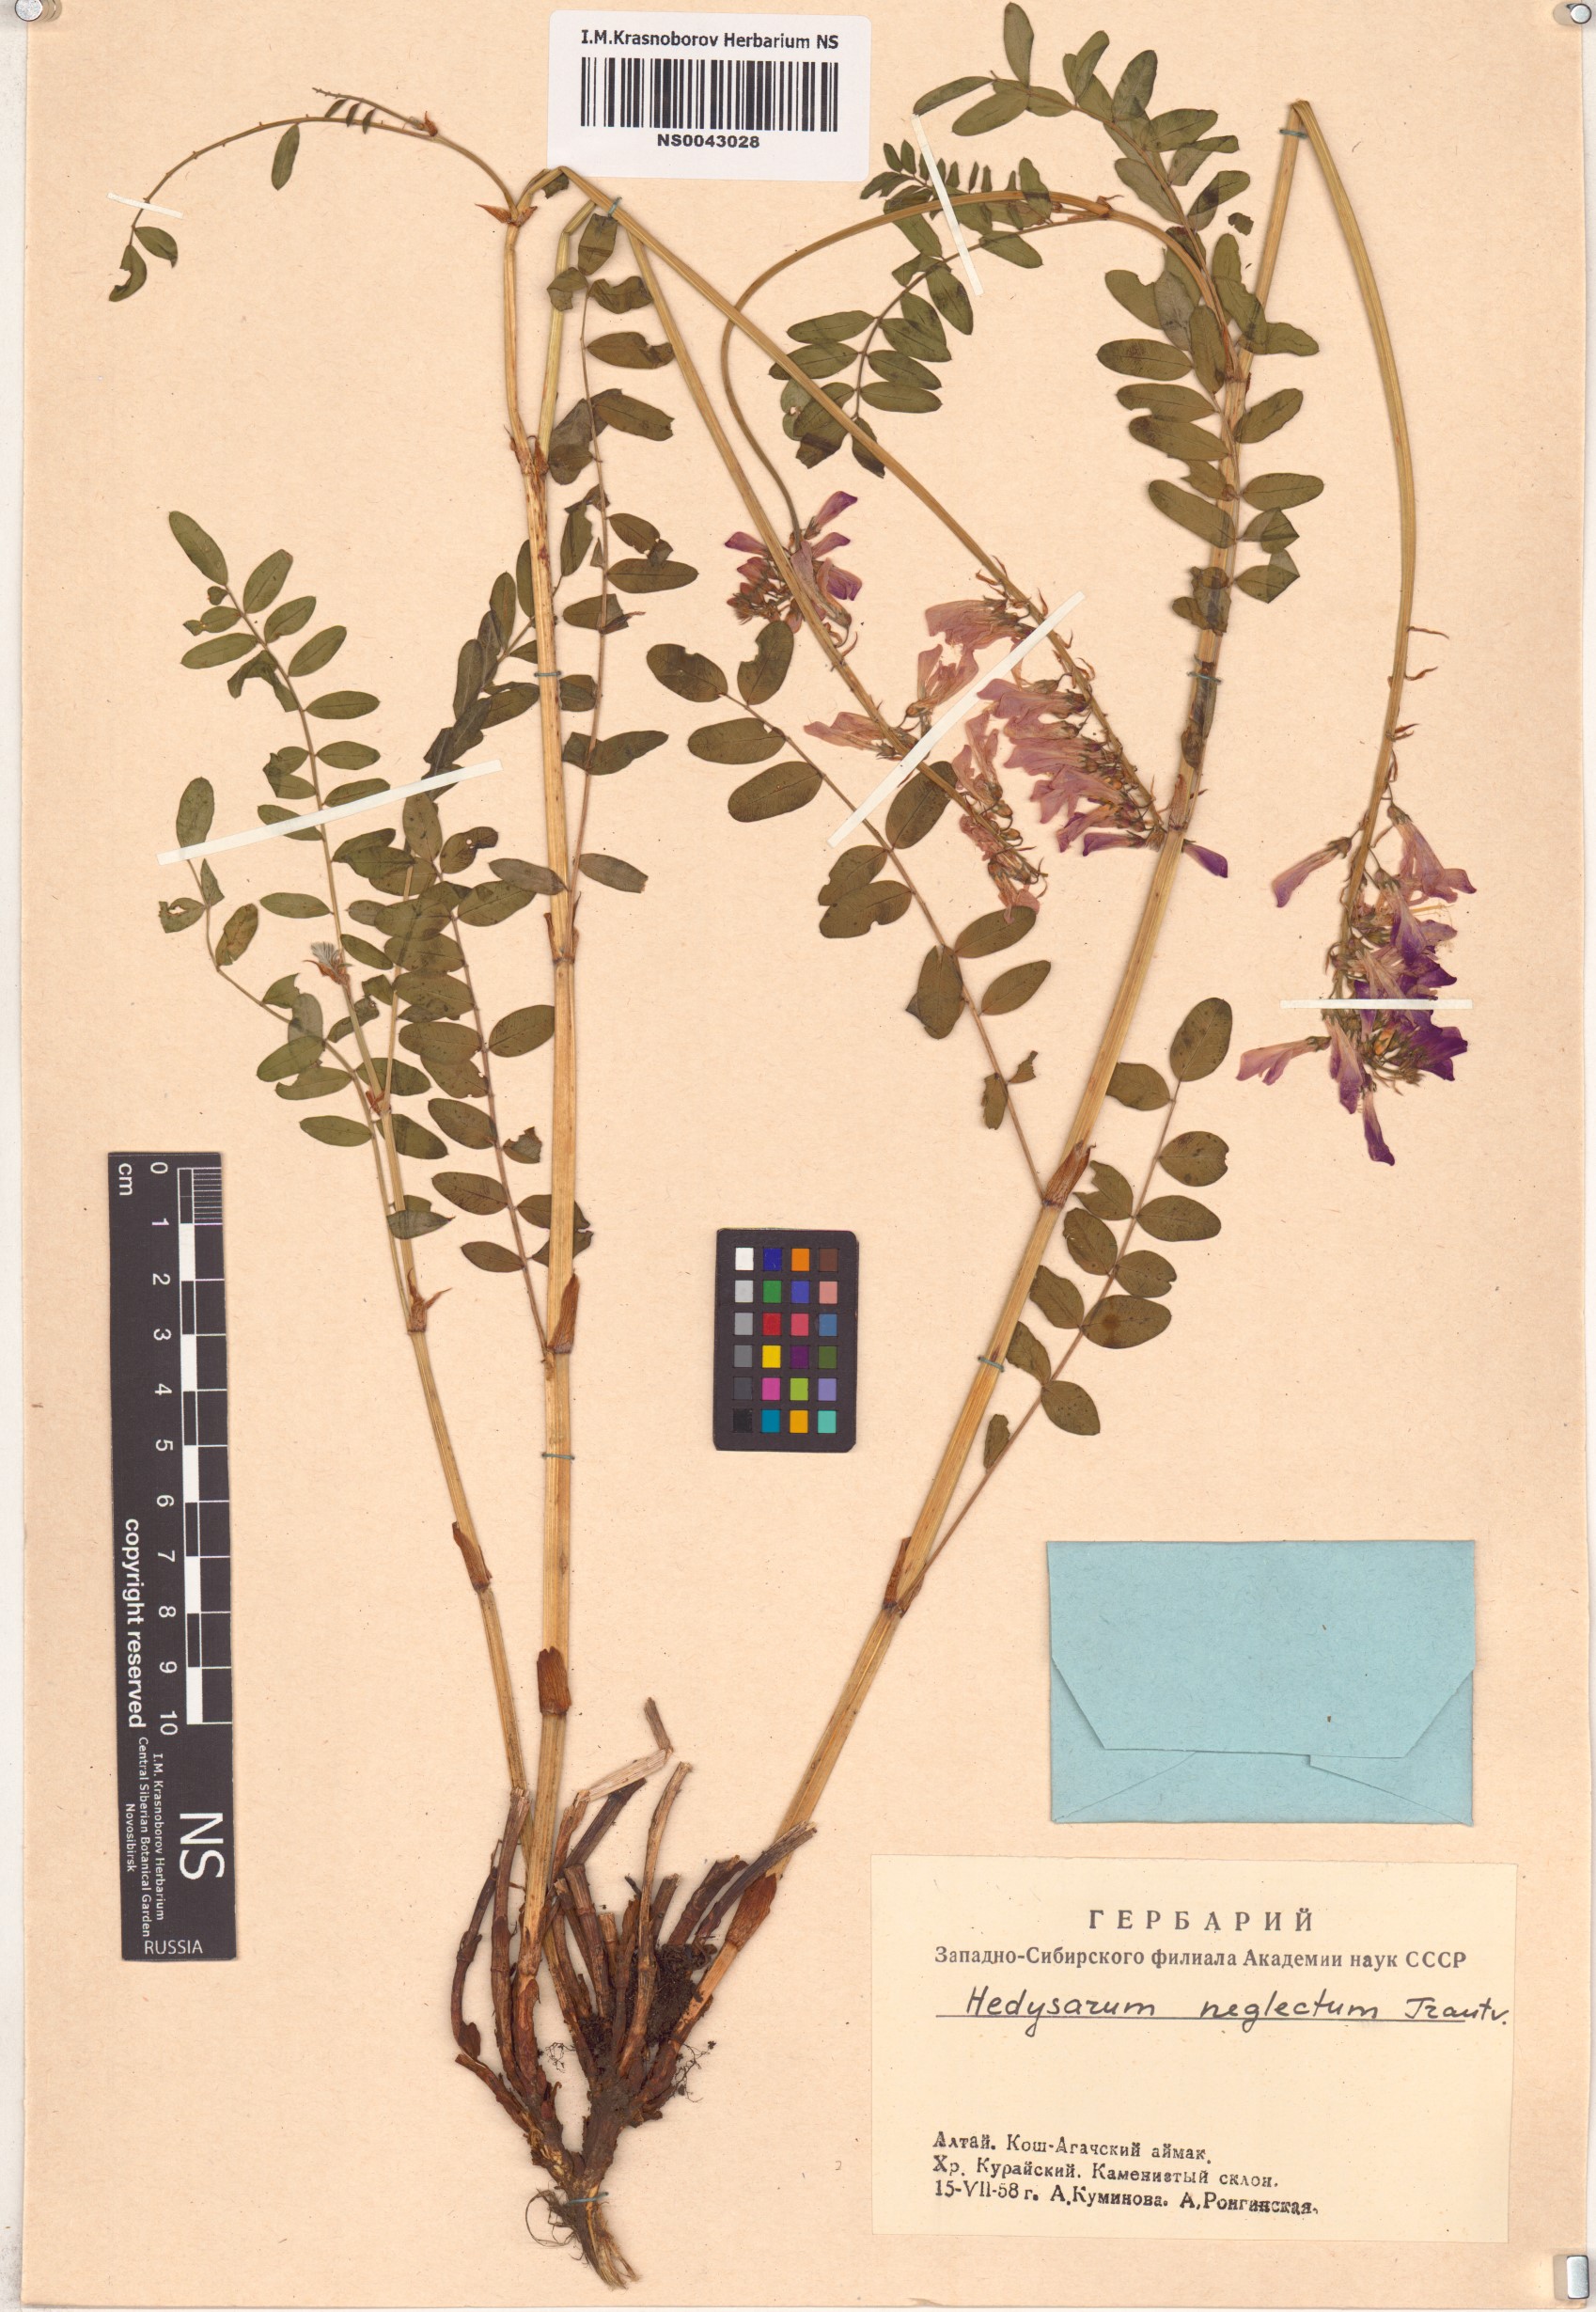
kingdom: Plantae
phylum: Tracheophyta
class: Magnoliopsida
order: Fabales
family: Fabaceae
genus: Hedysarum
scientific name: Hedysarum neglectum
